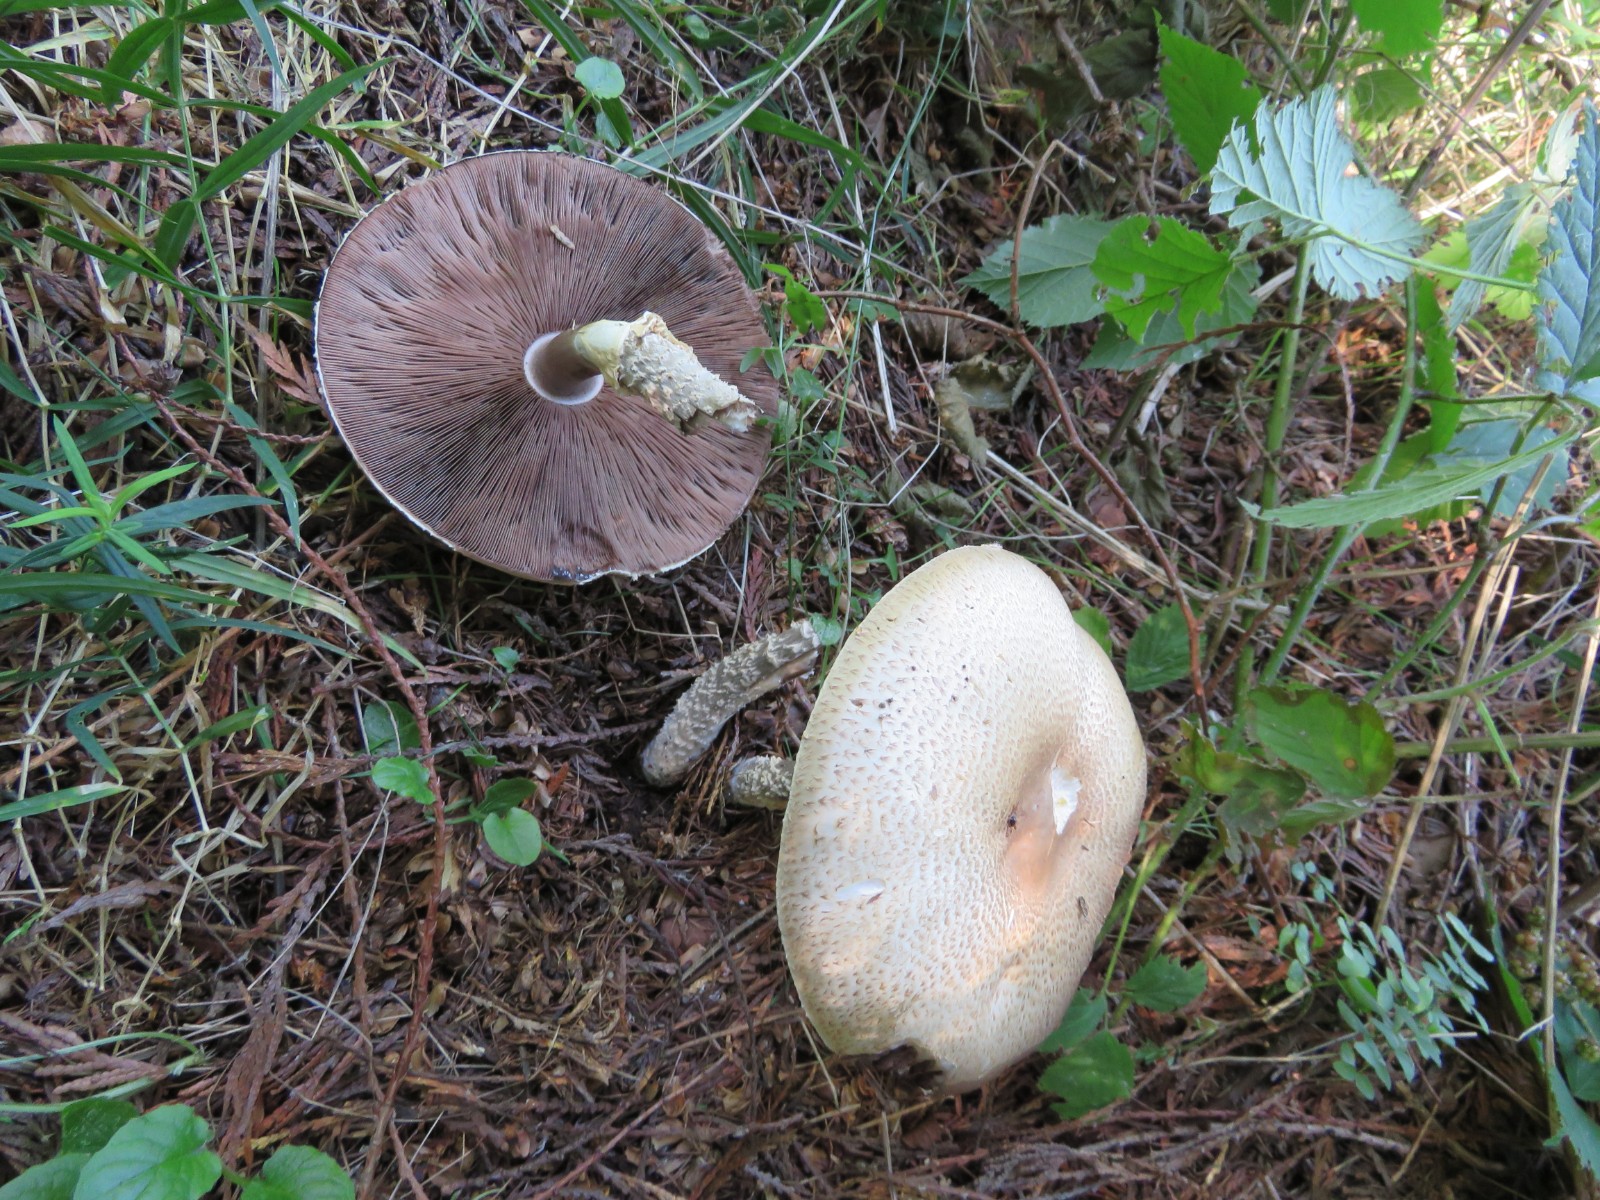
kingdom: Fungi
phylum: Basidiomycota
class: Agaricomycetes
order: Agaricales
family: Agaricaceae
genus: Agaricus
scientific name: Agaricus augustus
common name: prægtig champignon
